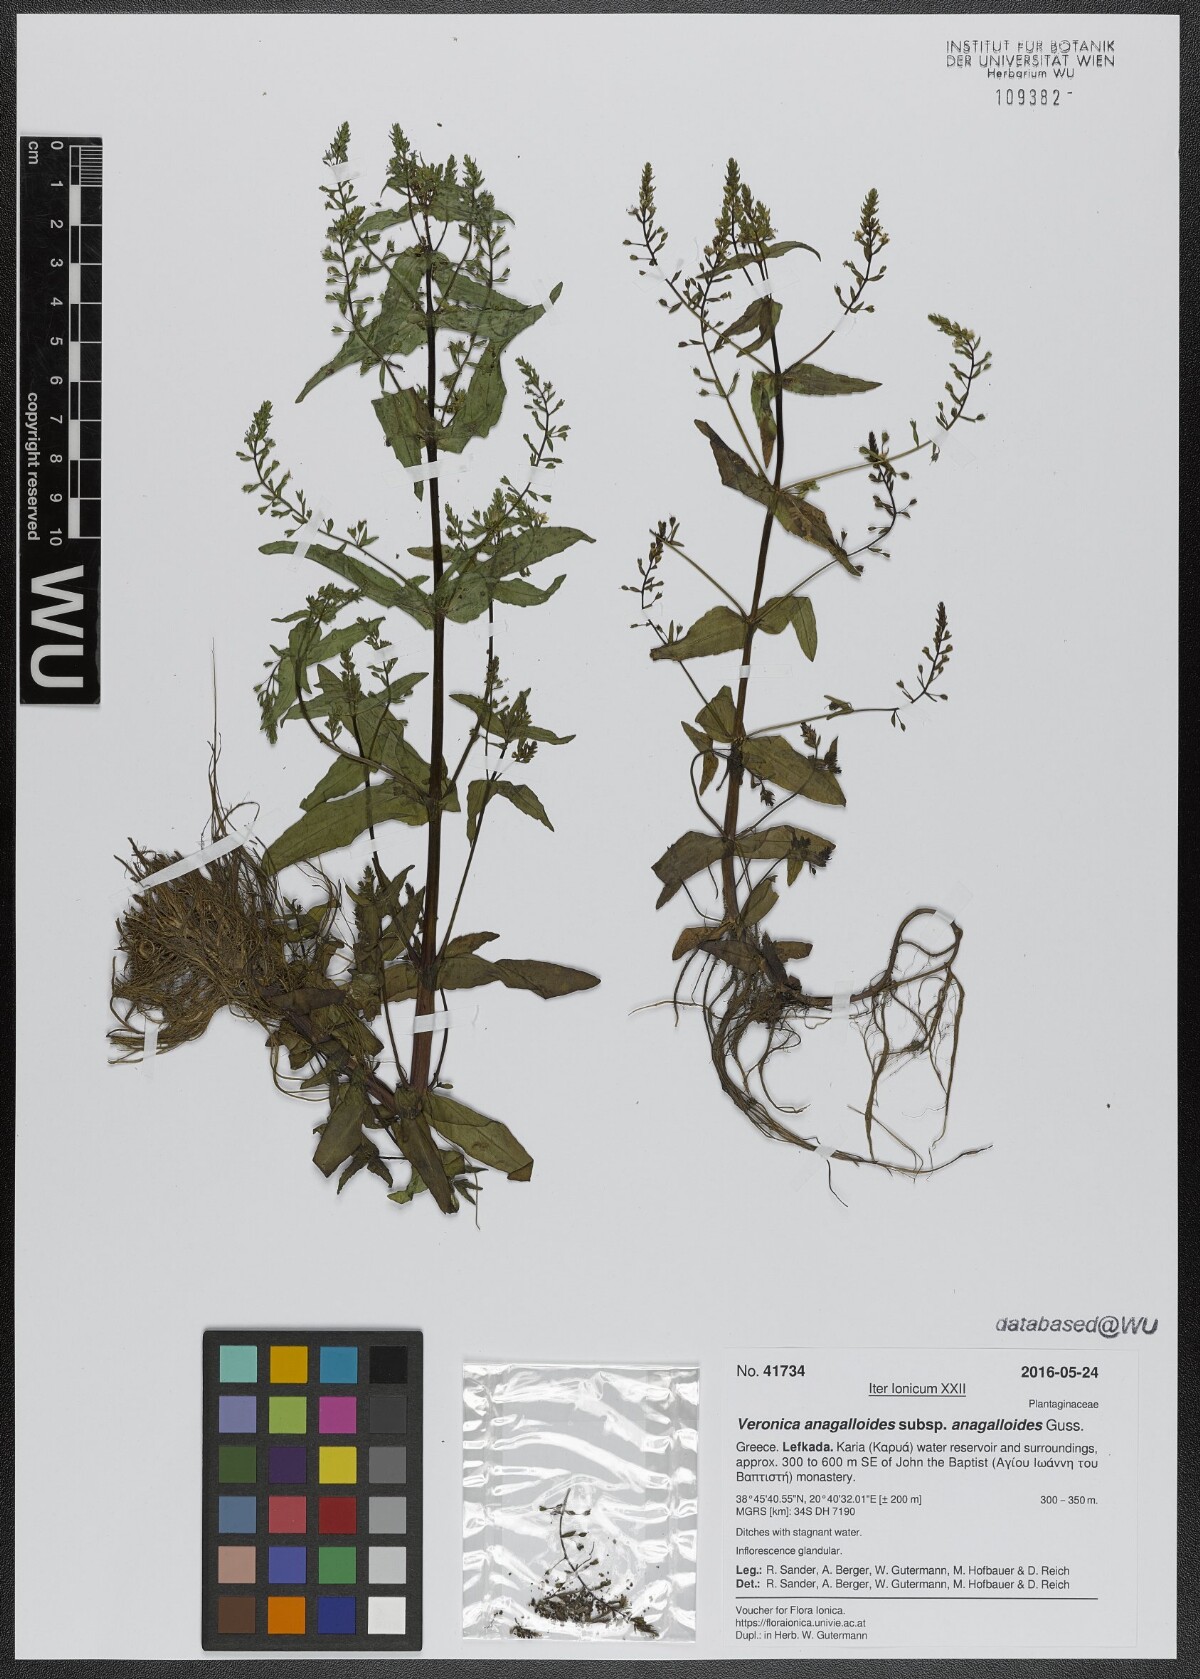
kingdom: Plantae
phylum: Tracheophyta
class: Magnoliopsida
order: Lamiales
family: Plantaginaceae
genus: Veronica
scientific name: Veronica anagalloides
